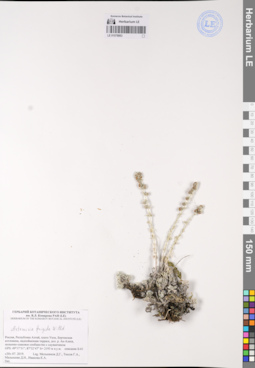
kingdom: Plantae
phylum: Tracheophyta
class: Magnoliopsida
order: Asterales
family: Asteraceae
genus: Artemisia
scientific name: Artemisia frigida
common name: Prairie sagewort
